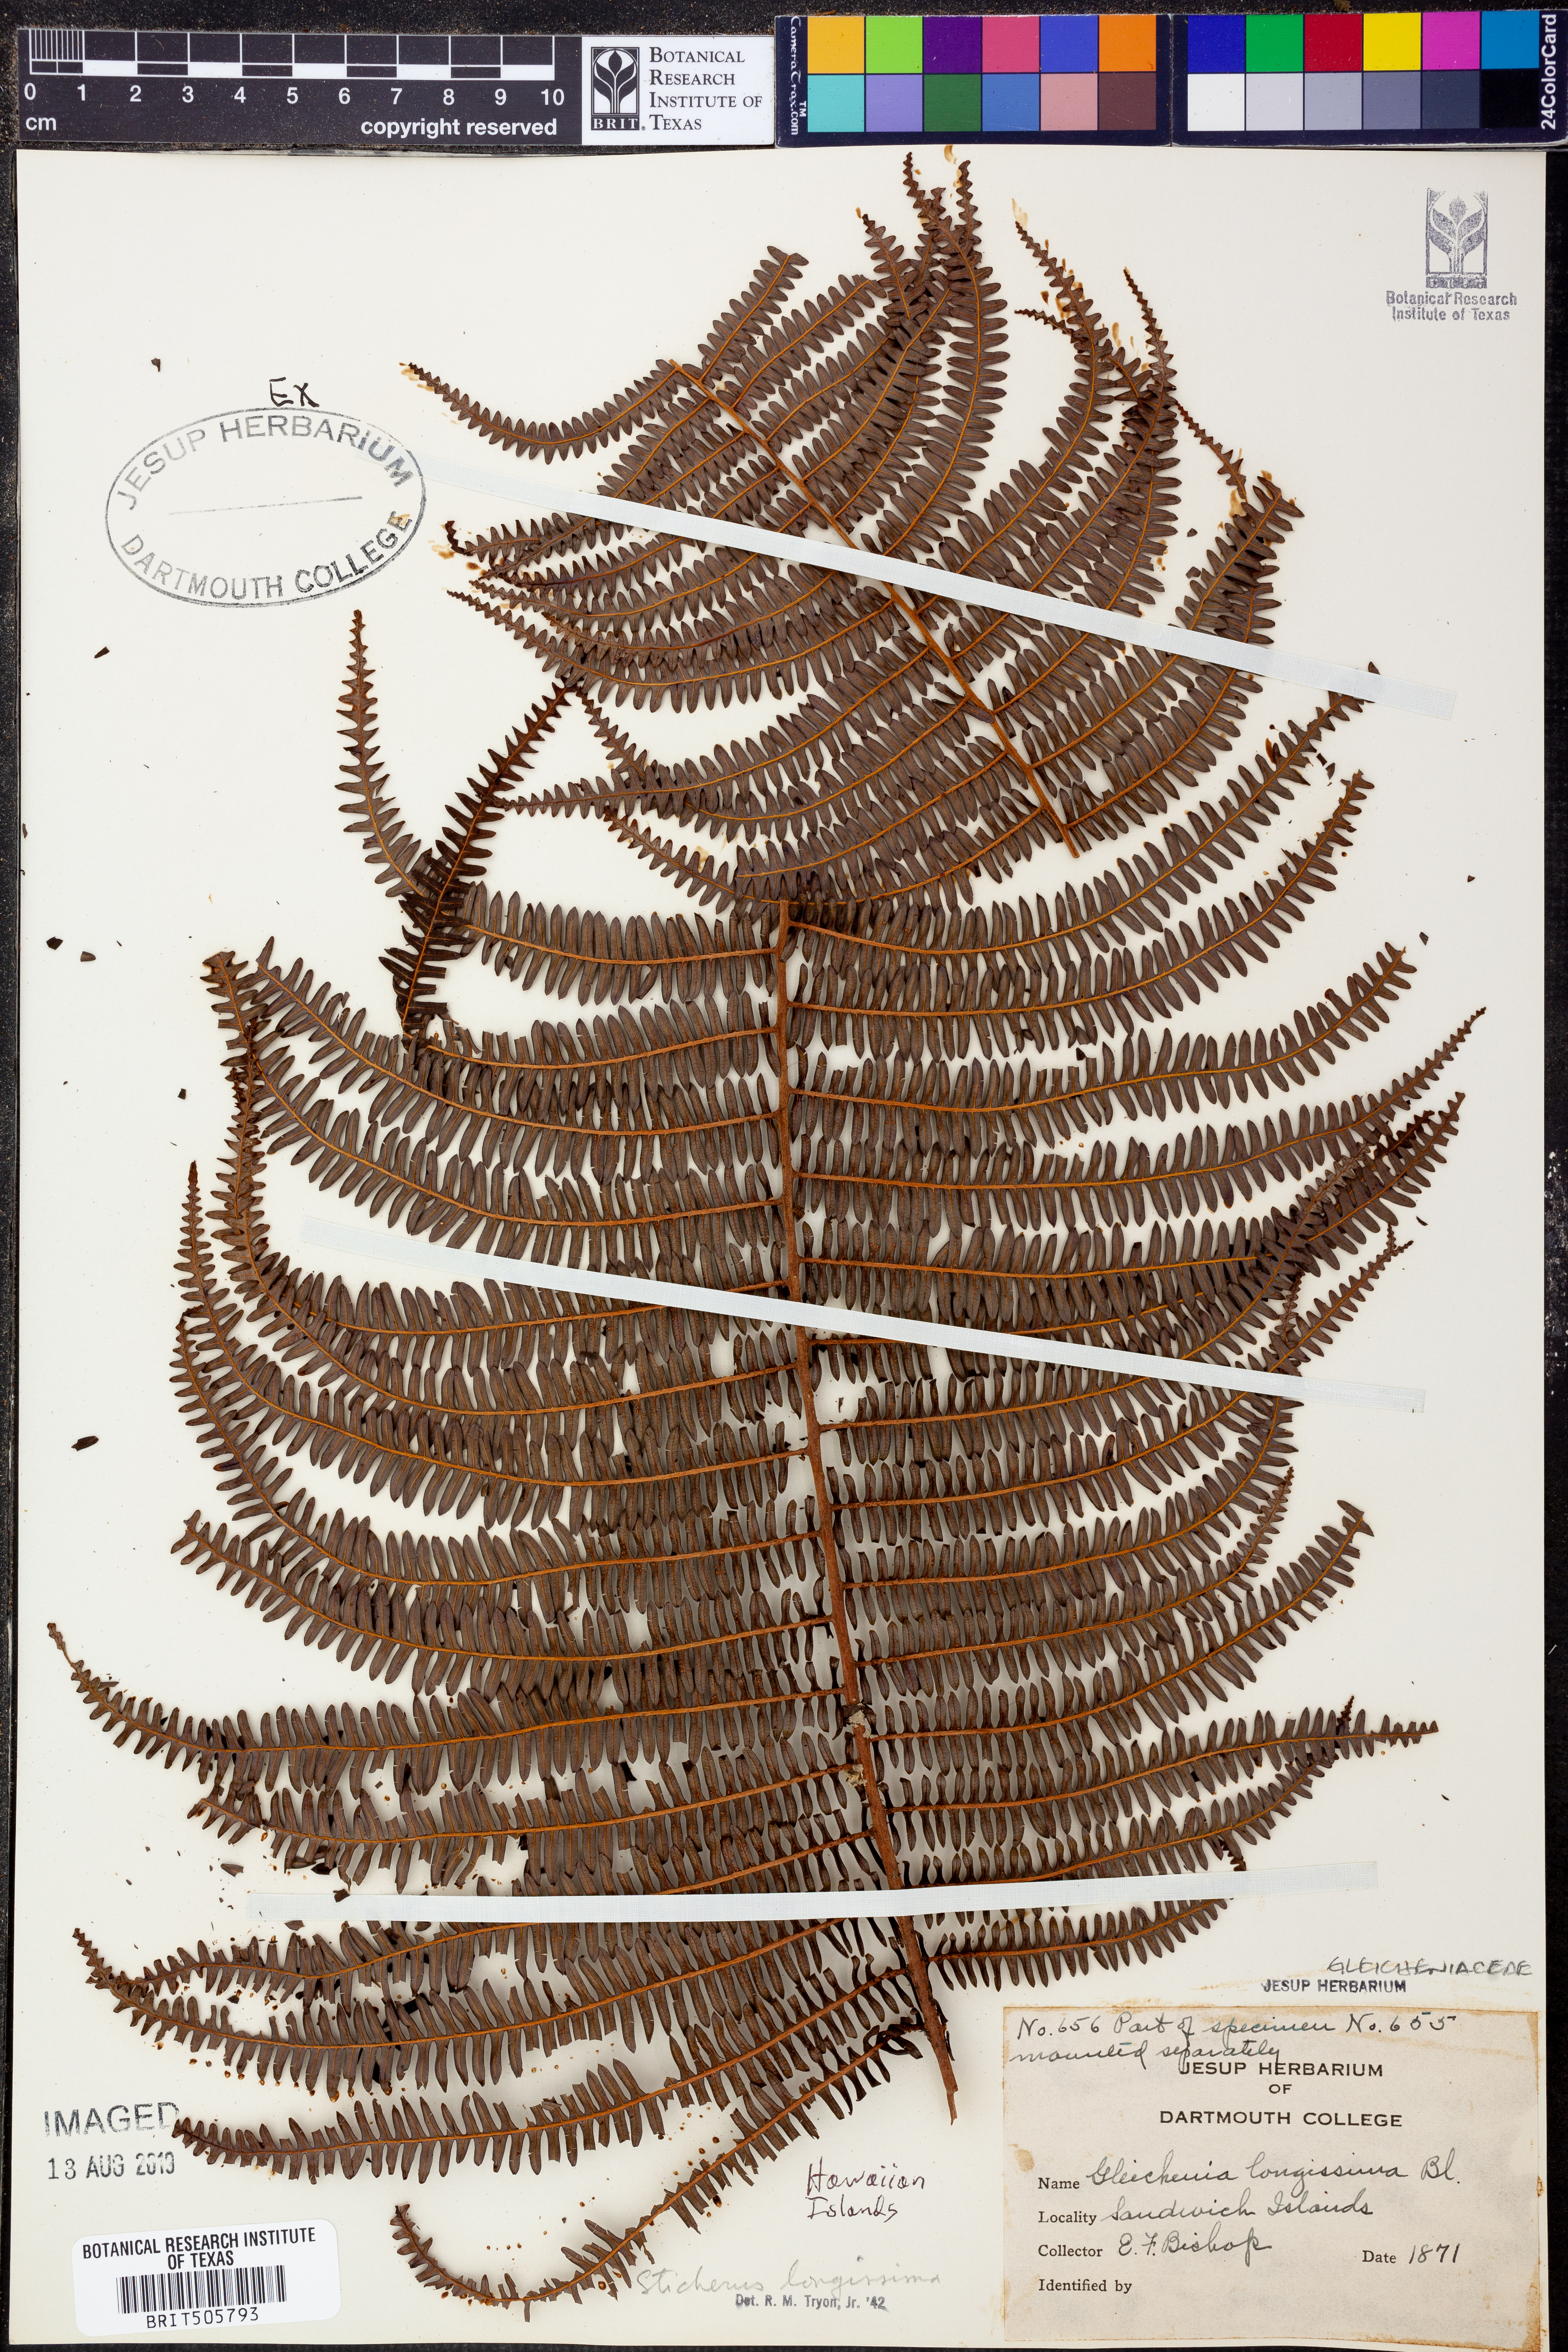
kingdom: Plantae
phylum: Tracheophyta
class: Polypodiopsida
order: Gleicheniales
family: Gleicheniaceae
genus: Sticherus
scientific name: Sticherus
